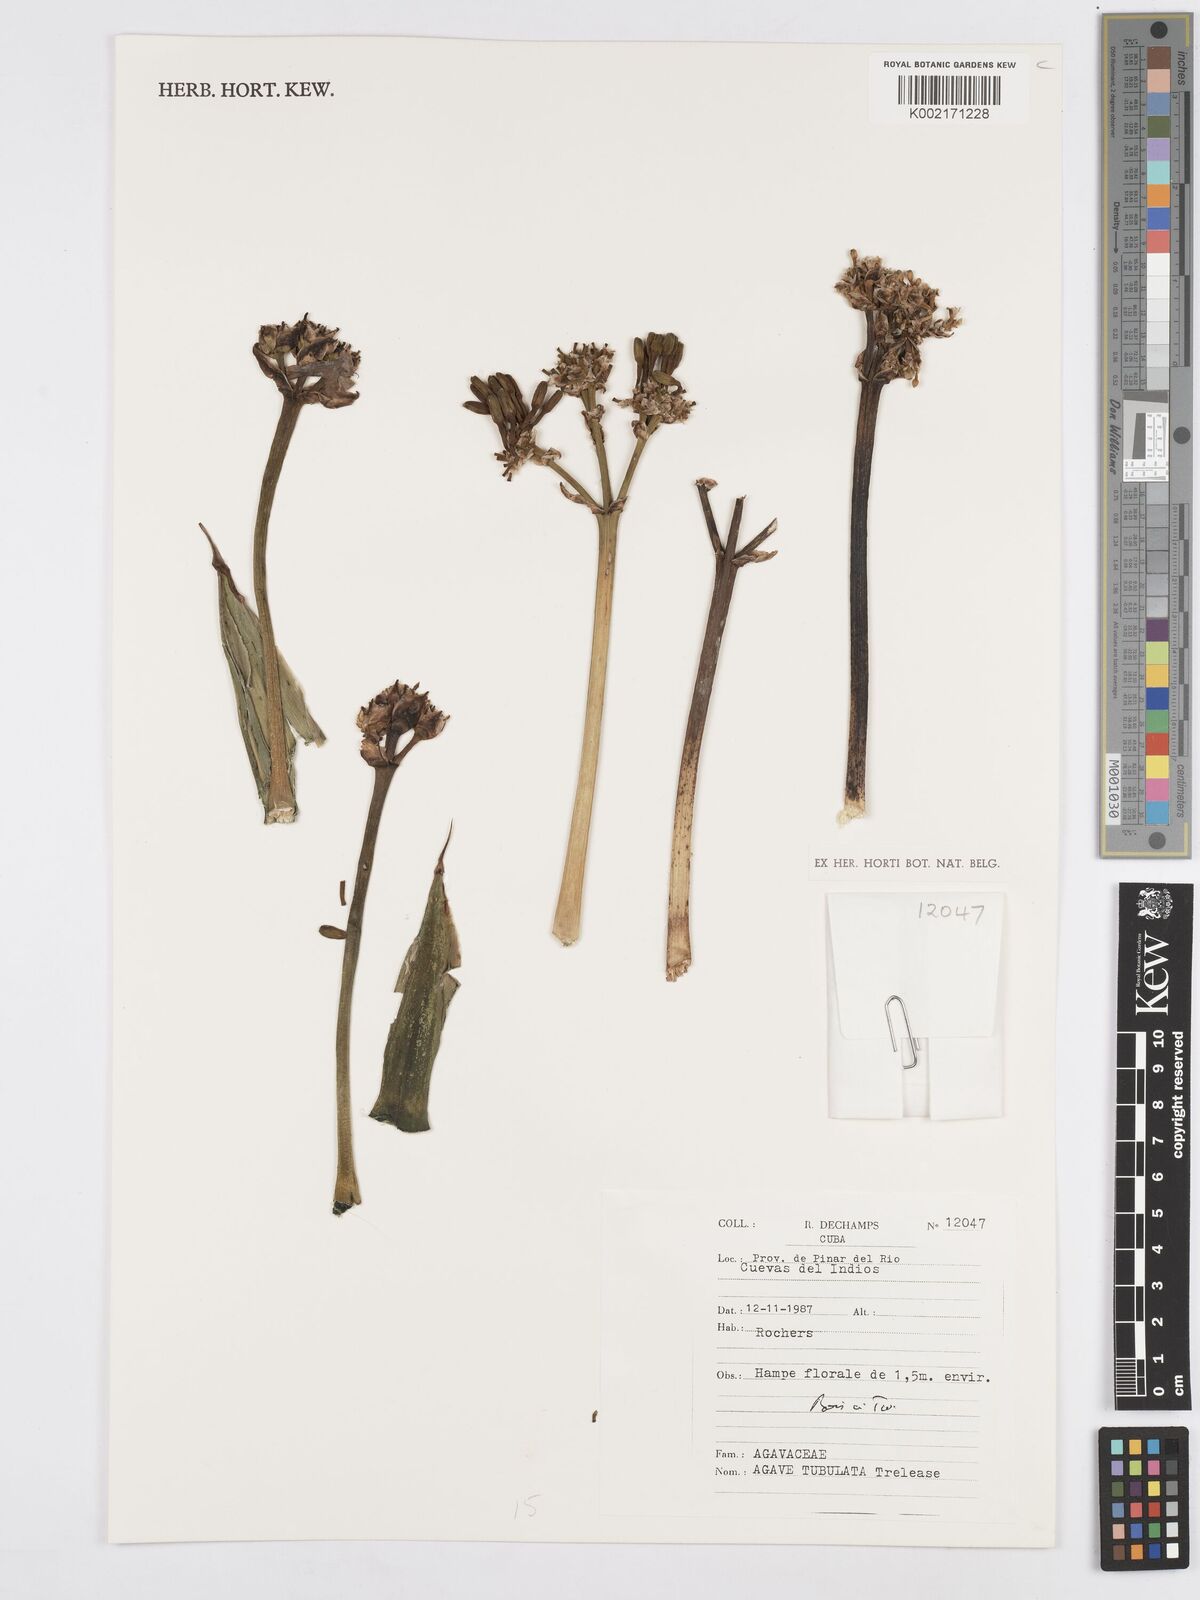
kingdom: Plantae
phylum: Tracheophyta
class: Liliopsida
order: Asparagales
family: Asparagaceae
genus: Agave
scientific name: Agave tubulata
